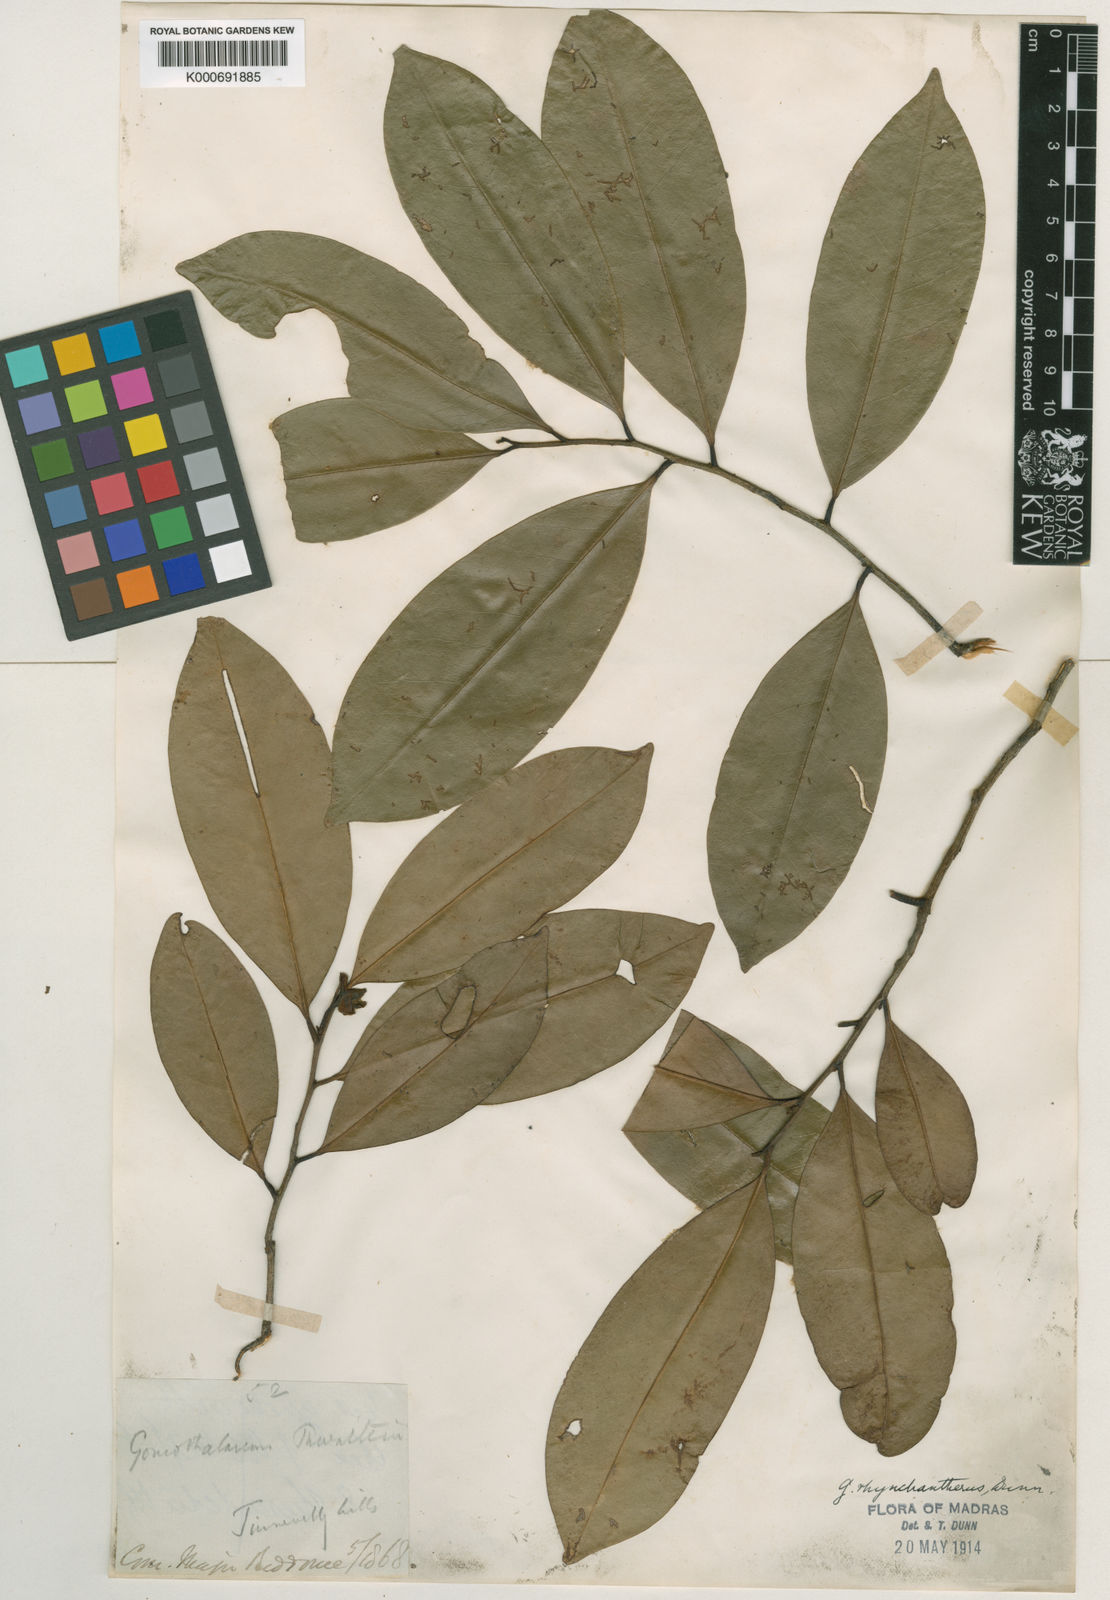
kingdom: Plantae
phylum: Tracheophyta
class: Magnoliopsida
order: Magnoliales
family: Annonaceae
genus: Goniothalamus
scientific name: Goniothalamus rhynchantherus
